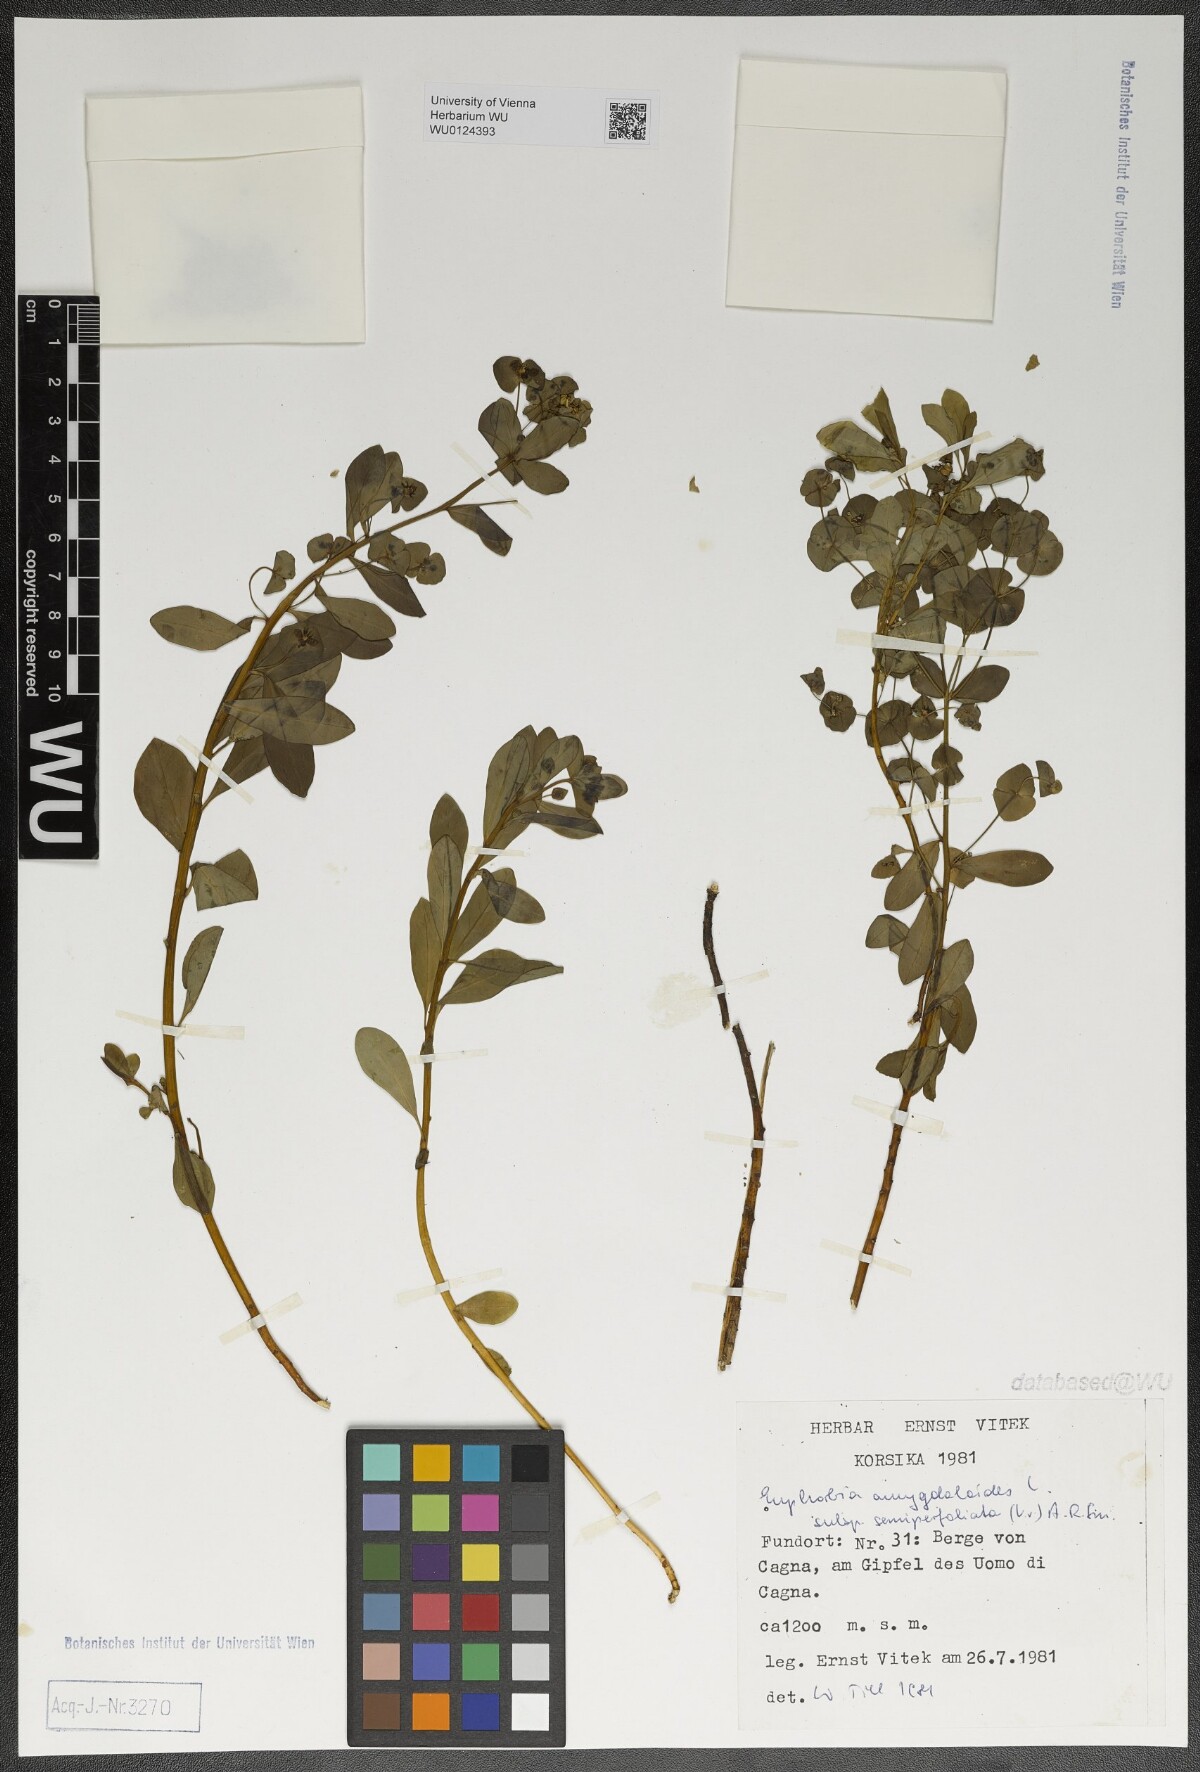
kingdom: Plantae
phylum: Tracheophyta
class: Magnoliopsida
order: Malpighiales
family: Euphorbiaceae
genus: Euphorbia
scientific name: Euphorbia semiperfoliata
